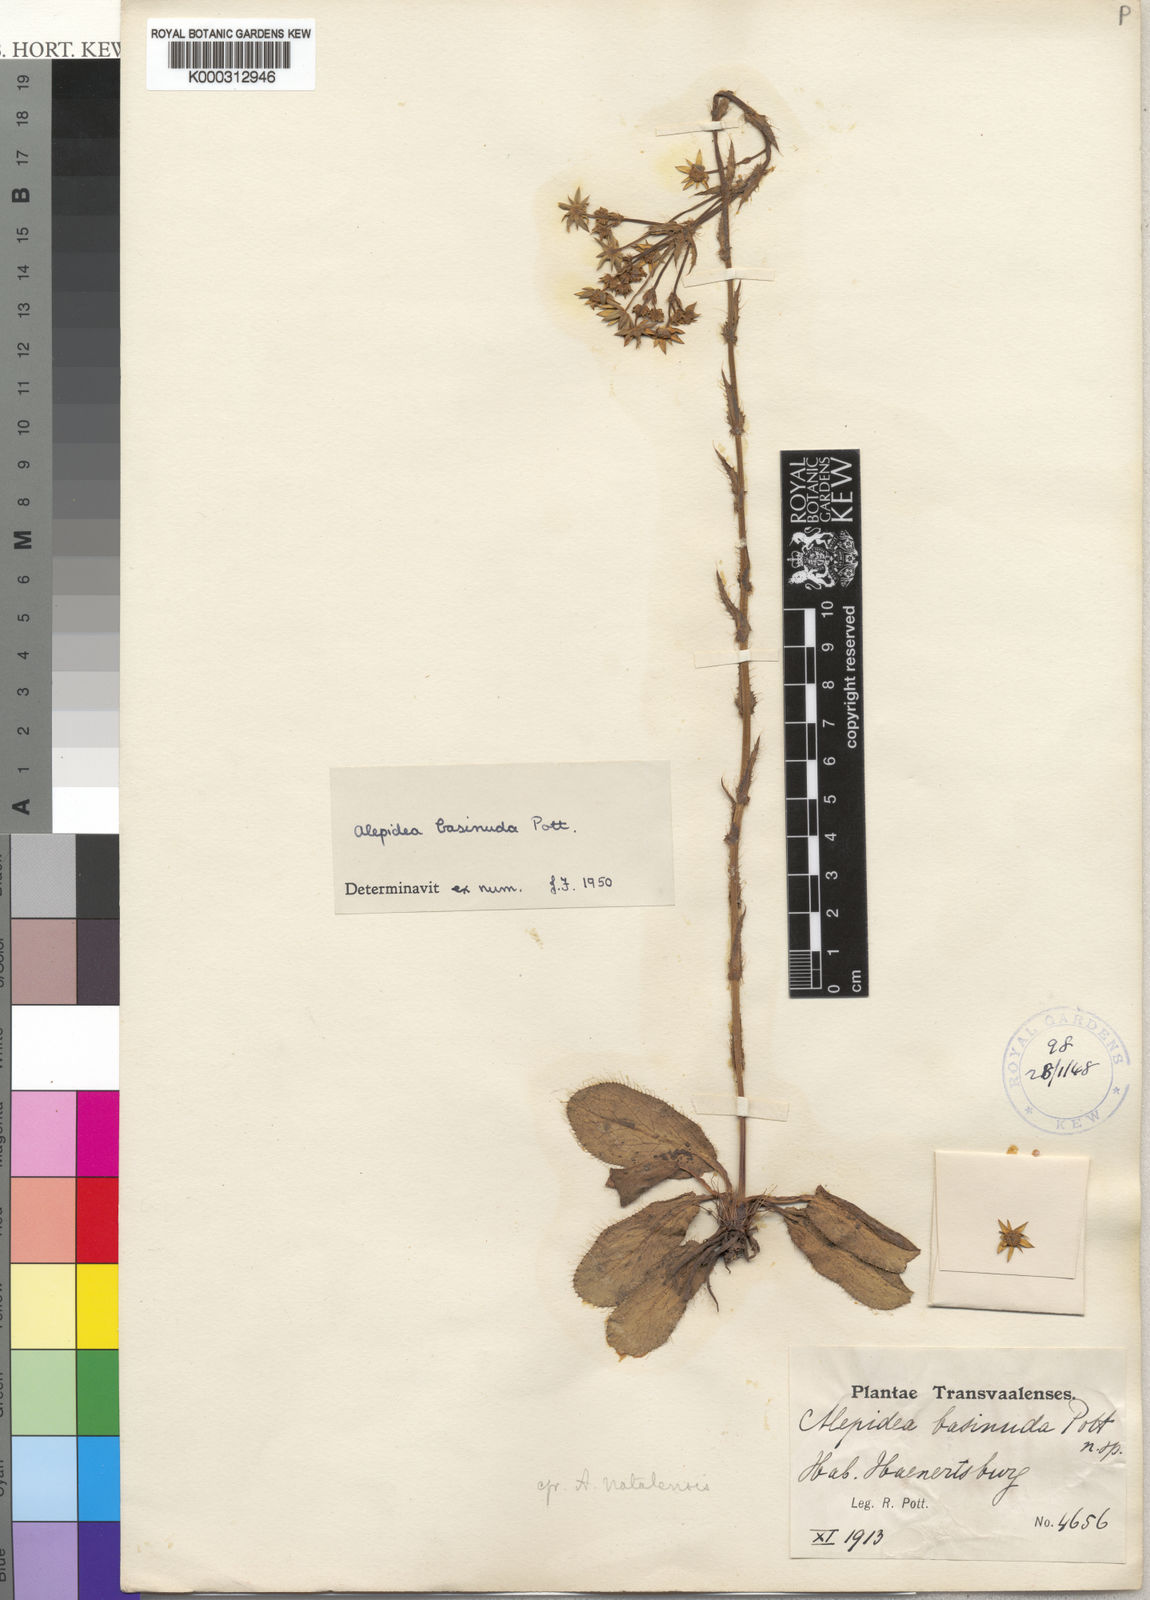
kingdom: Plantae
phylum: Tracheophyta
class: Magnoliopsida
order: Apiales
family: Apiaceae
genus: Alepidea
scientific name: Alepidea setifera
